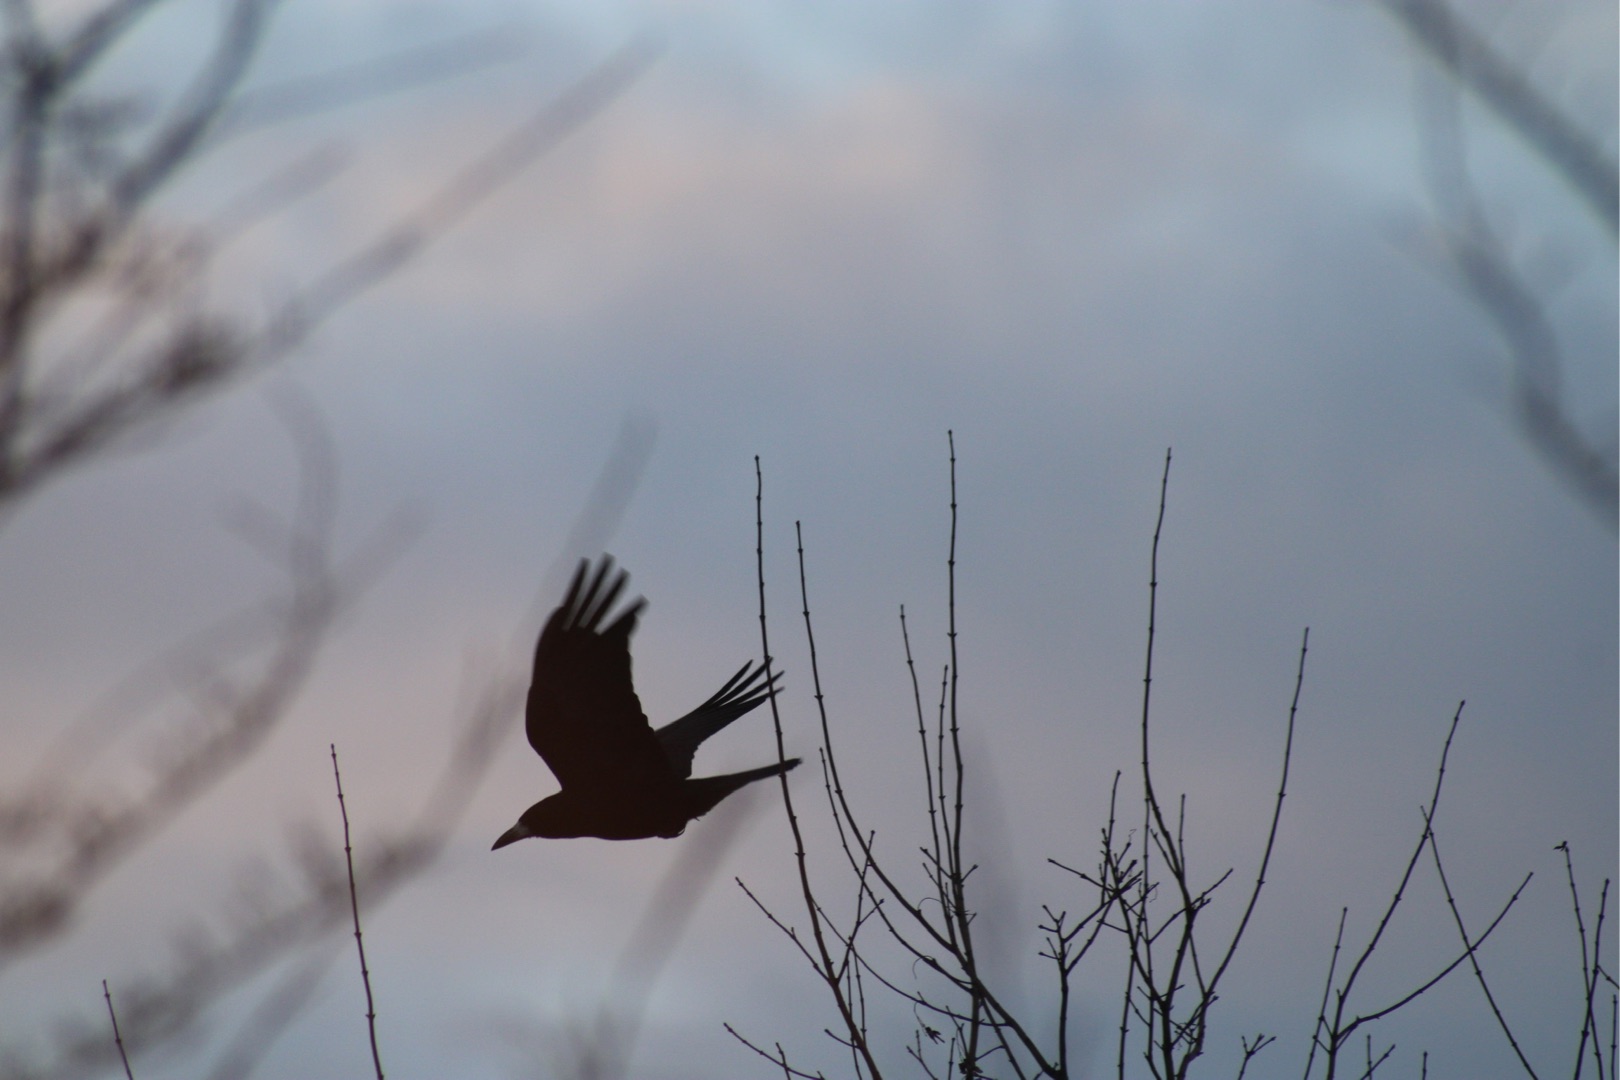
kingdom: Animalia
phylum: Chordata
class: Aves
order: Passeriformes
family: Corvidae
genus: Corvus
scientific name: Corvus frugilegus
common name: Råge
